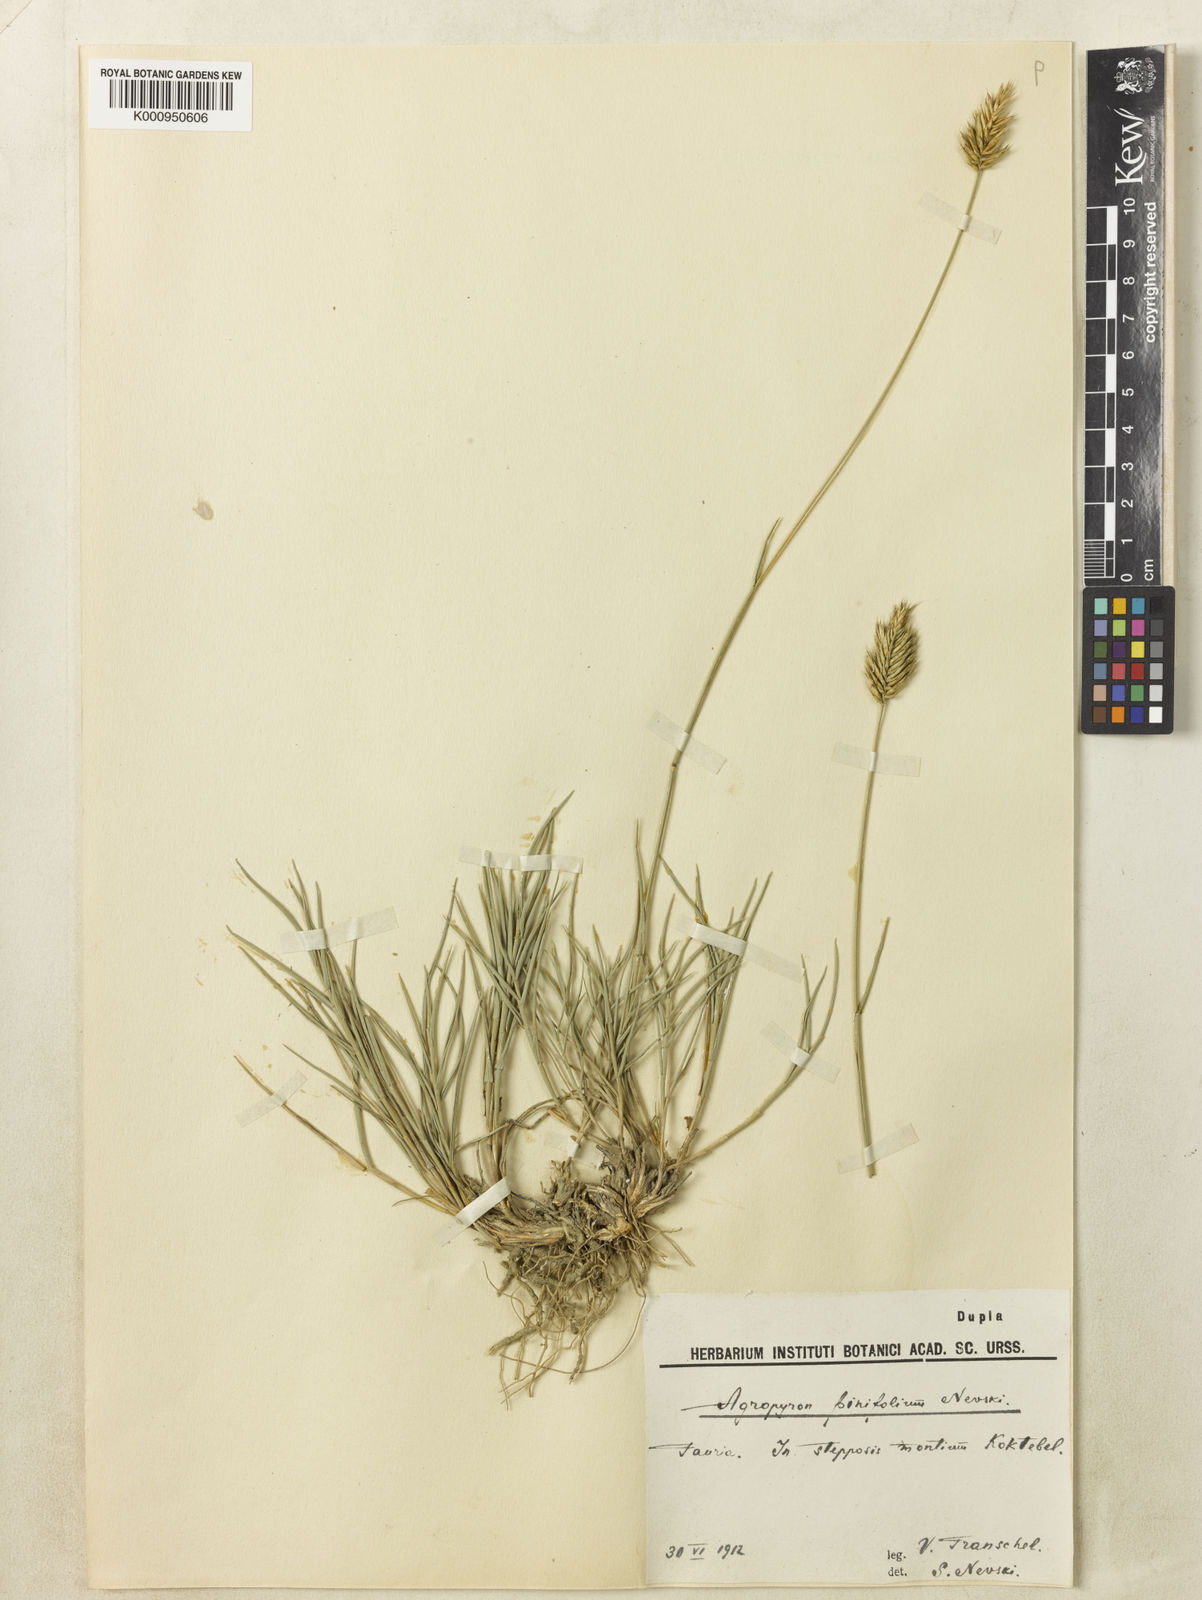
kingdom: Plantae
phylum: Tracheophyta
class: Liliopsida
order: Poales
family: Poaceae
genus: Agropyron
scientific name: Agropyron cristatum
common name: Crested wheatgrass
